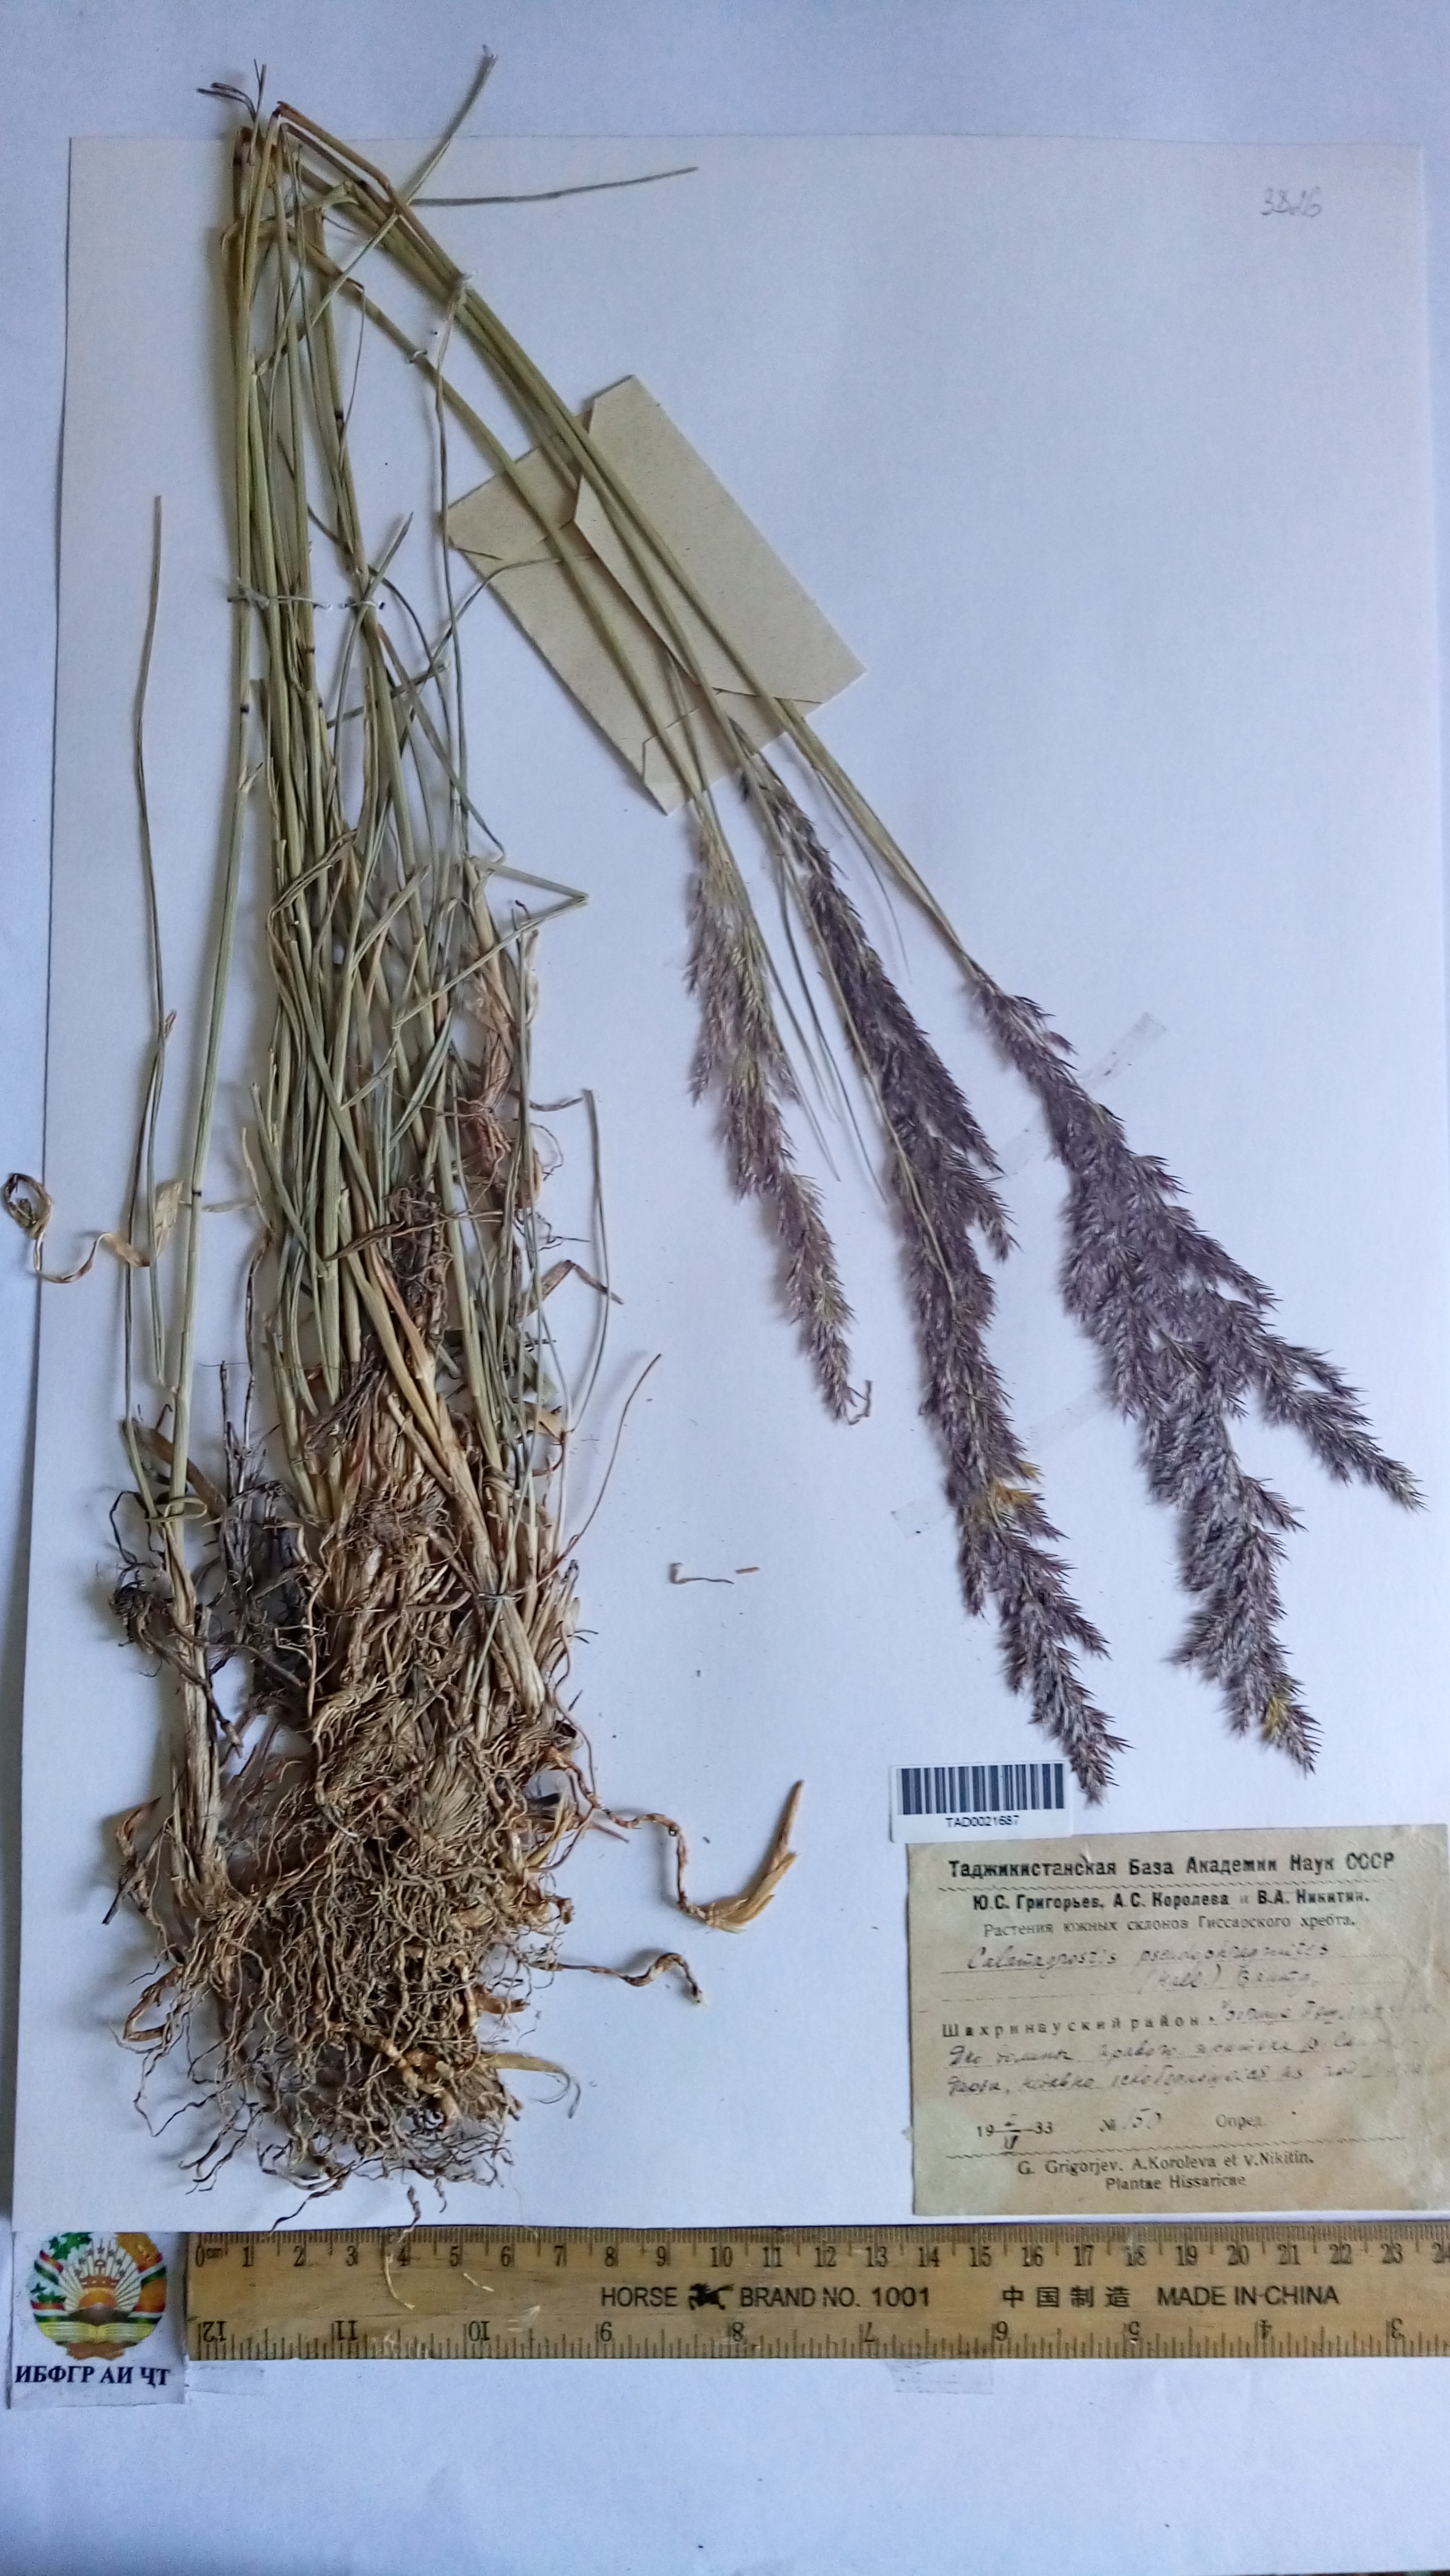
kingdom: Plantae
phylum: Tracheophyta
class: Liliopsida
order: Poales
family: Poaceae
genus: Calamagrostis
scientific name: Calamagrostis pseudophragmites
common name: Coastal small-reed
